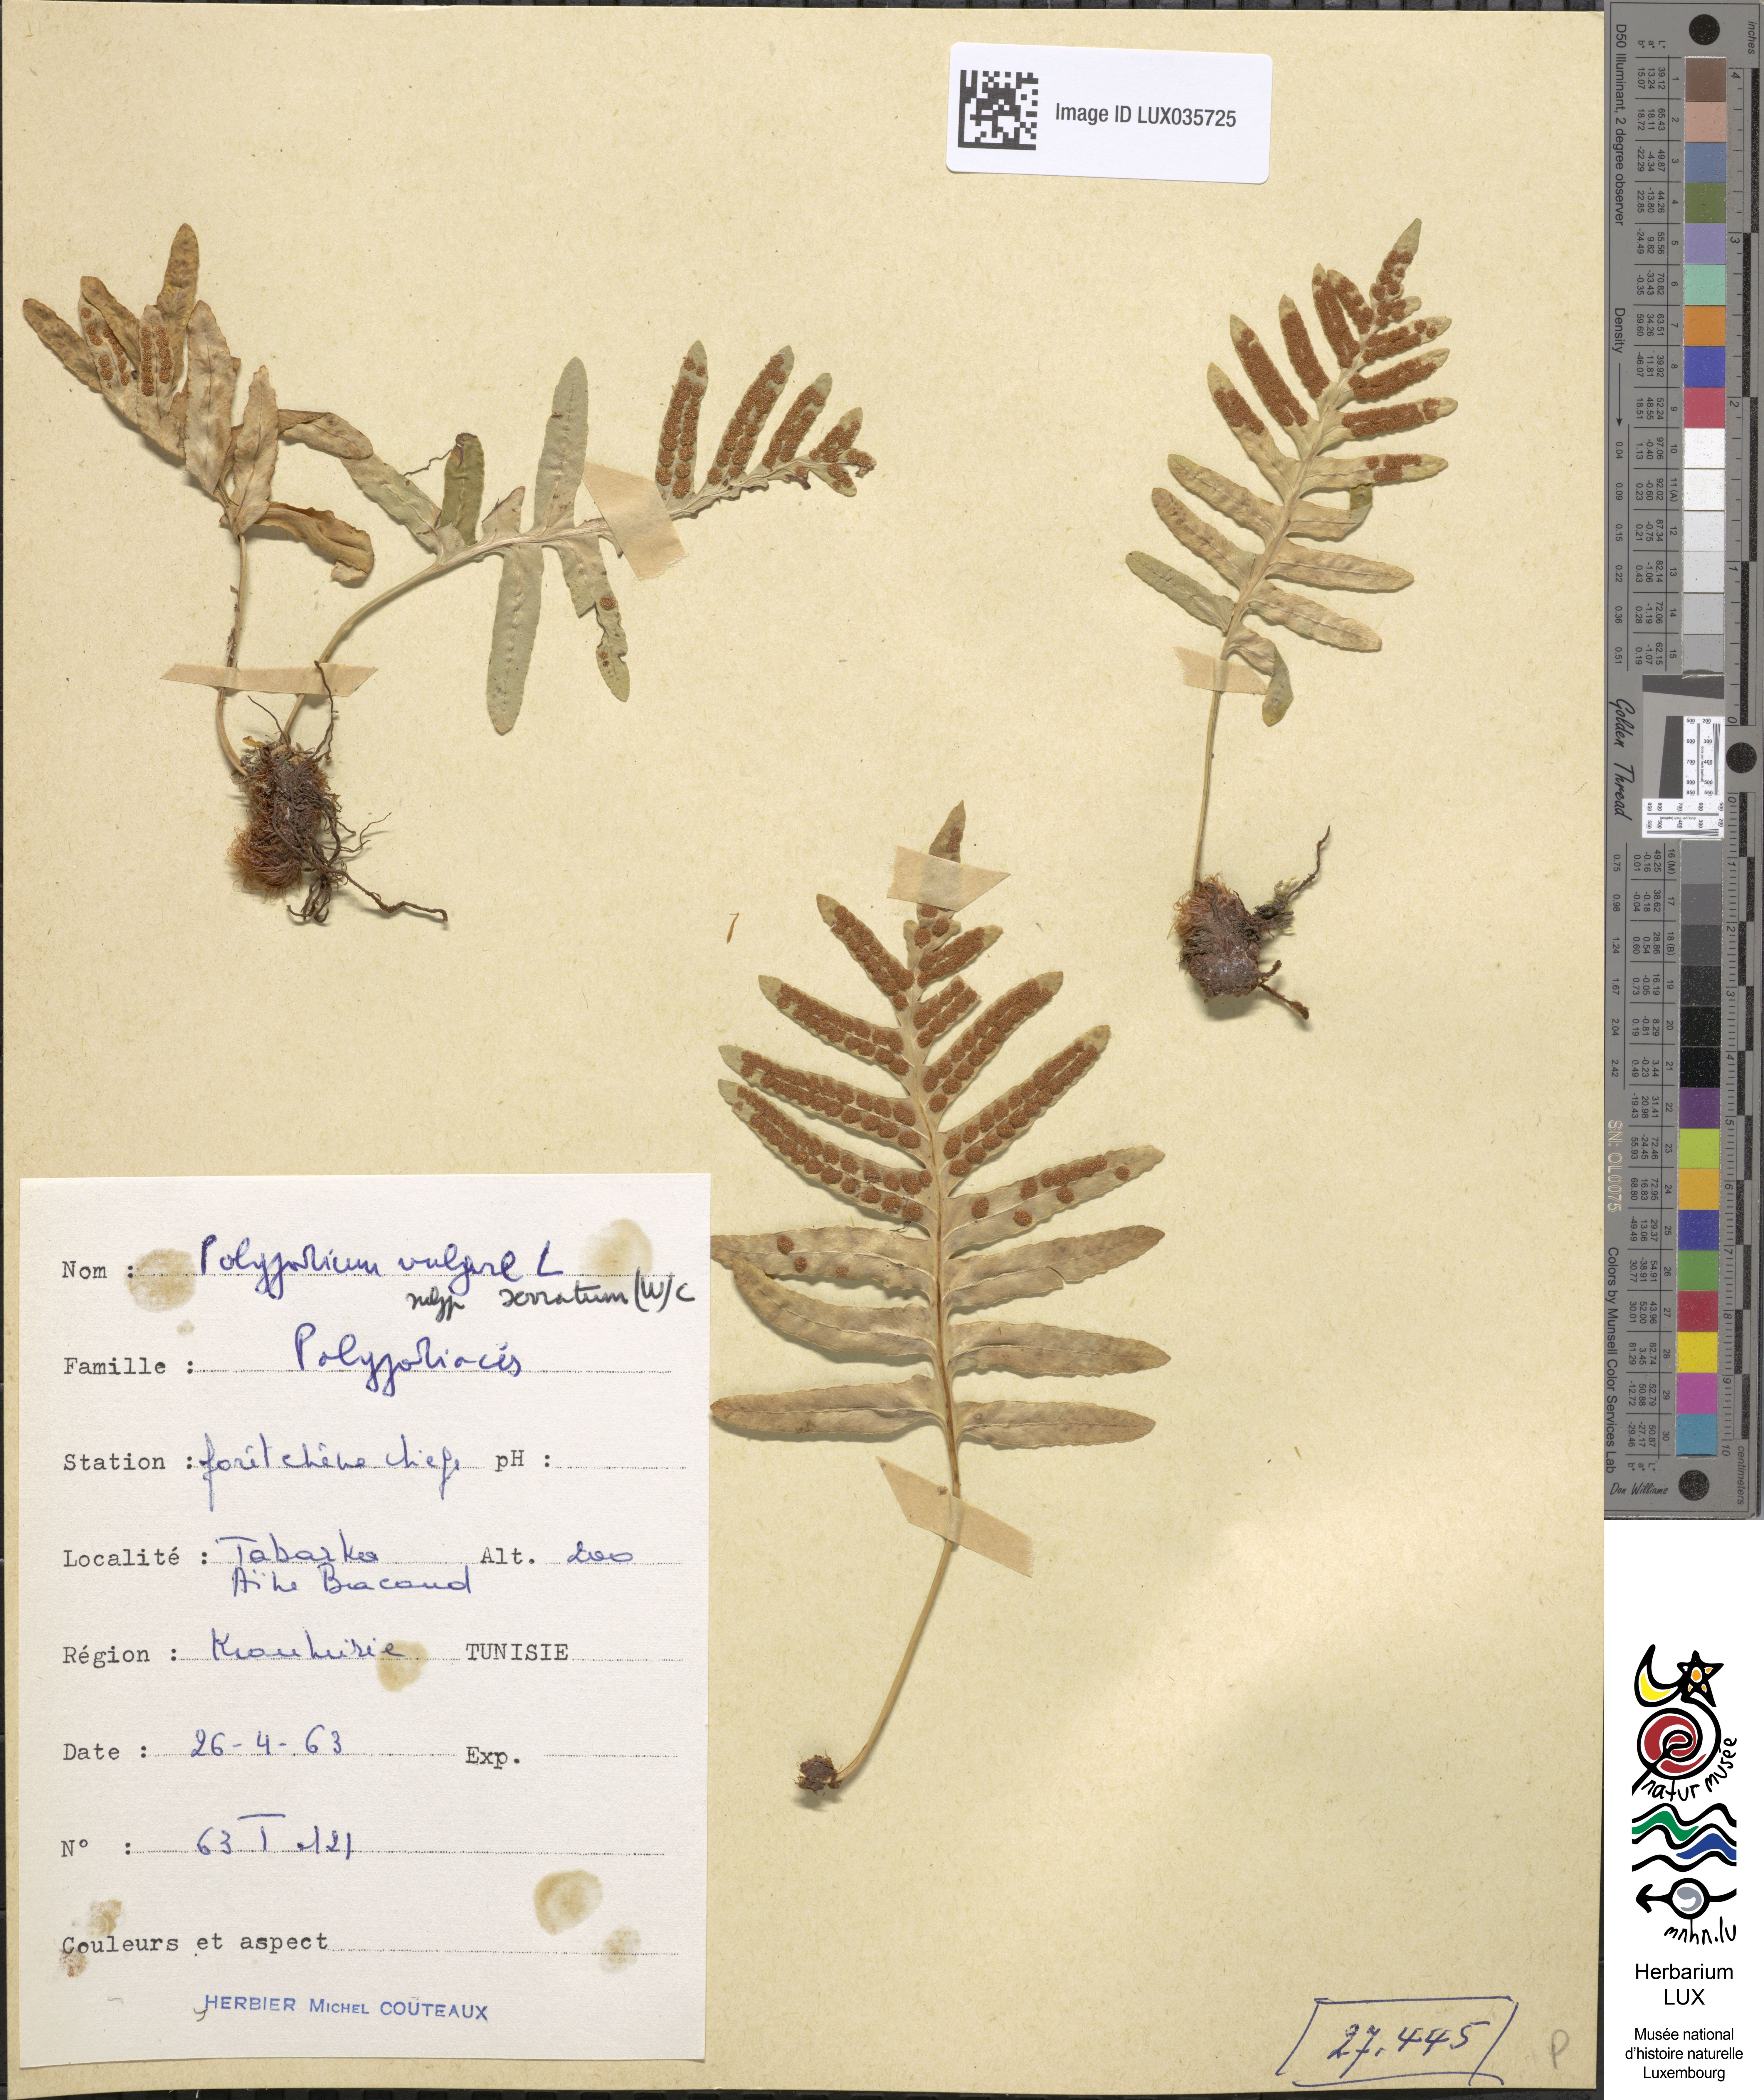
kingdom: Plantae
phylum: Tracheophyta
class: Polypodiopsida
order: Polypodiales
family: Polypodiaceae
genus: Polypodium
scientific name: Polypodium cambricum
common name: Southern polypody
